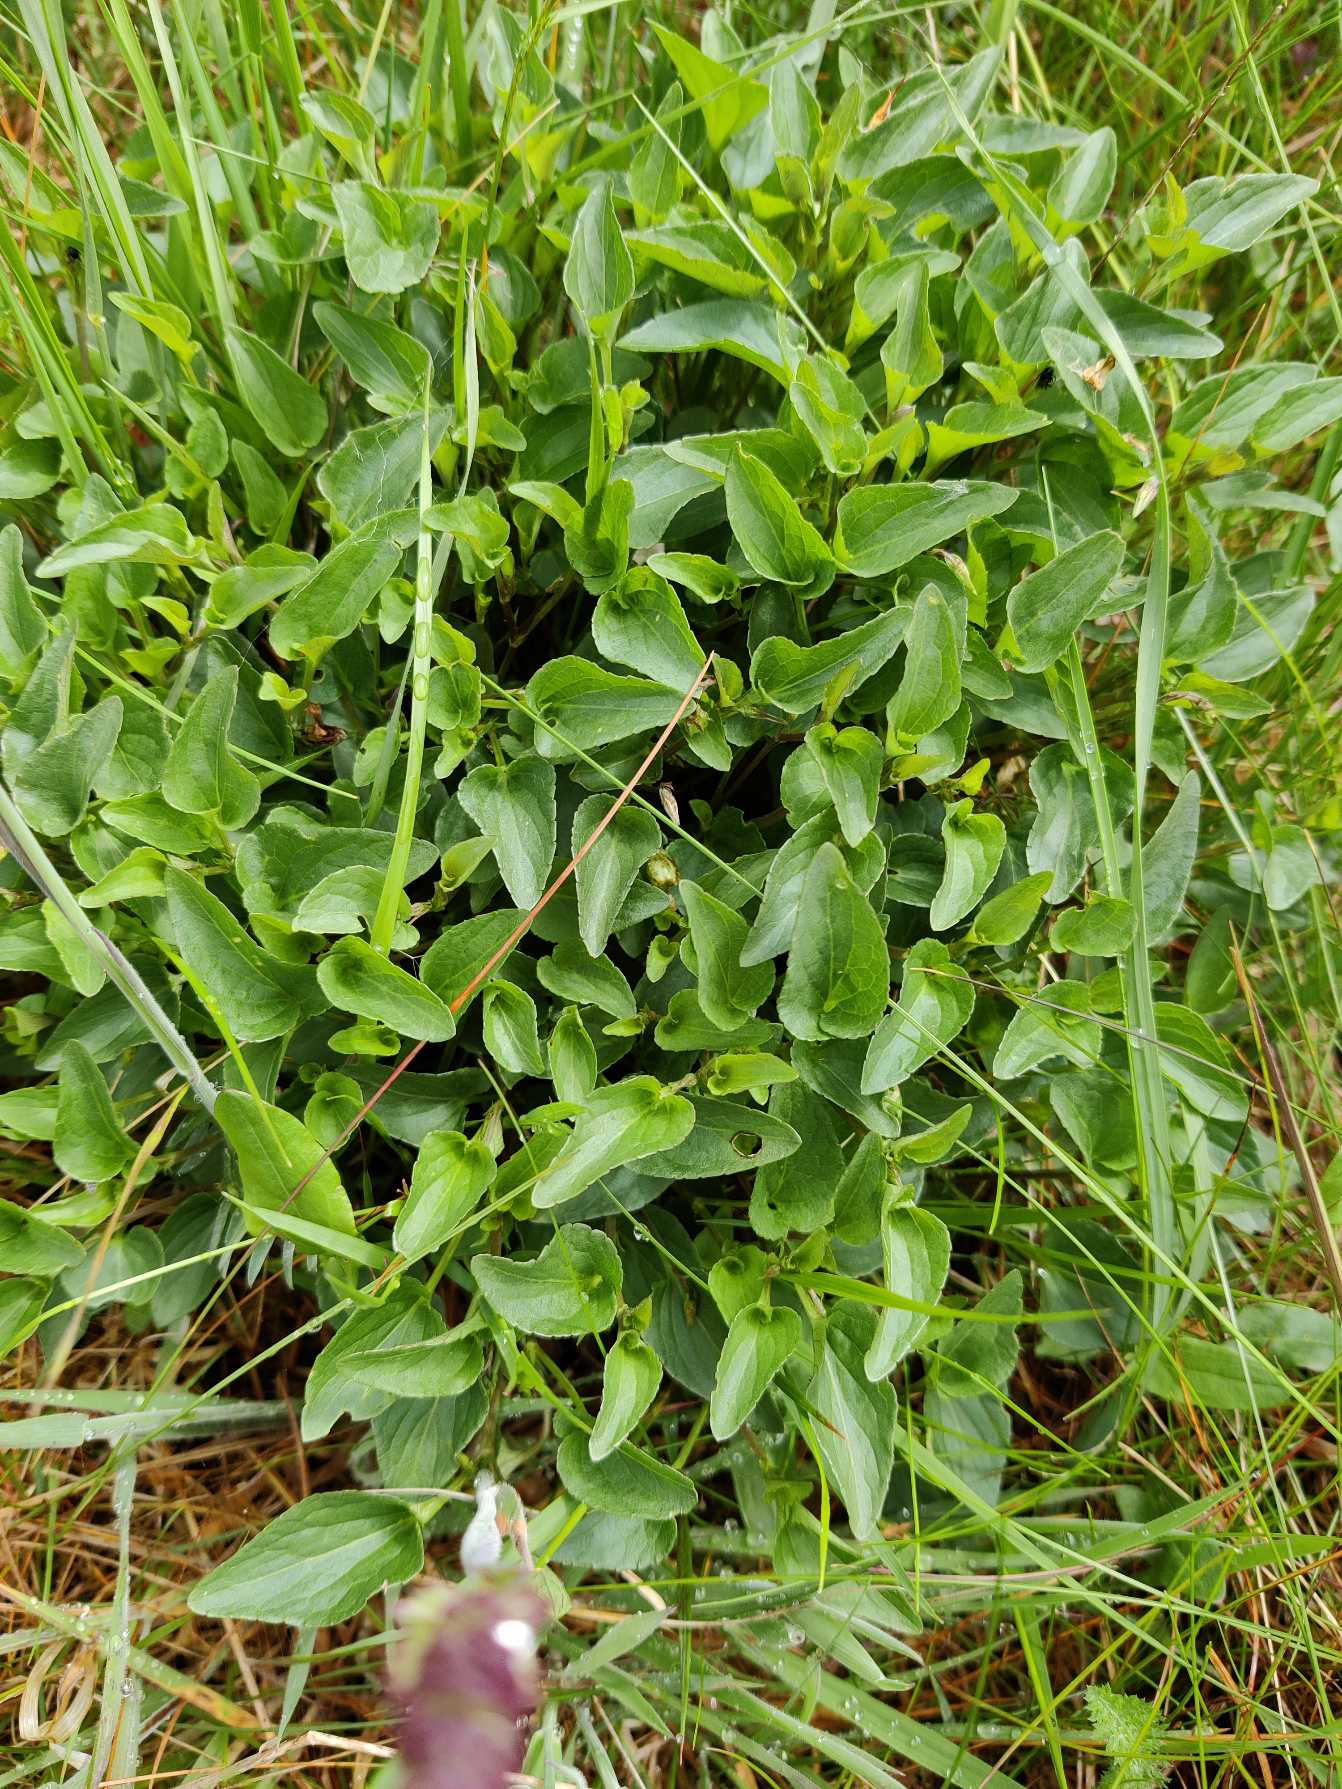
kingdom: Plantae
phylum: Tracheophyta
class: Magnoliopsida
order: Malpighiales
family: Violaceae
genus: Viola
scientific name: Viola canina
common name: Hunde-viol
